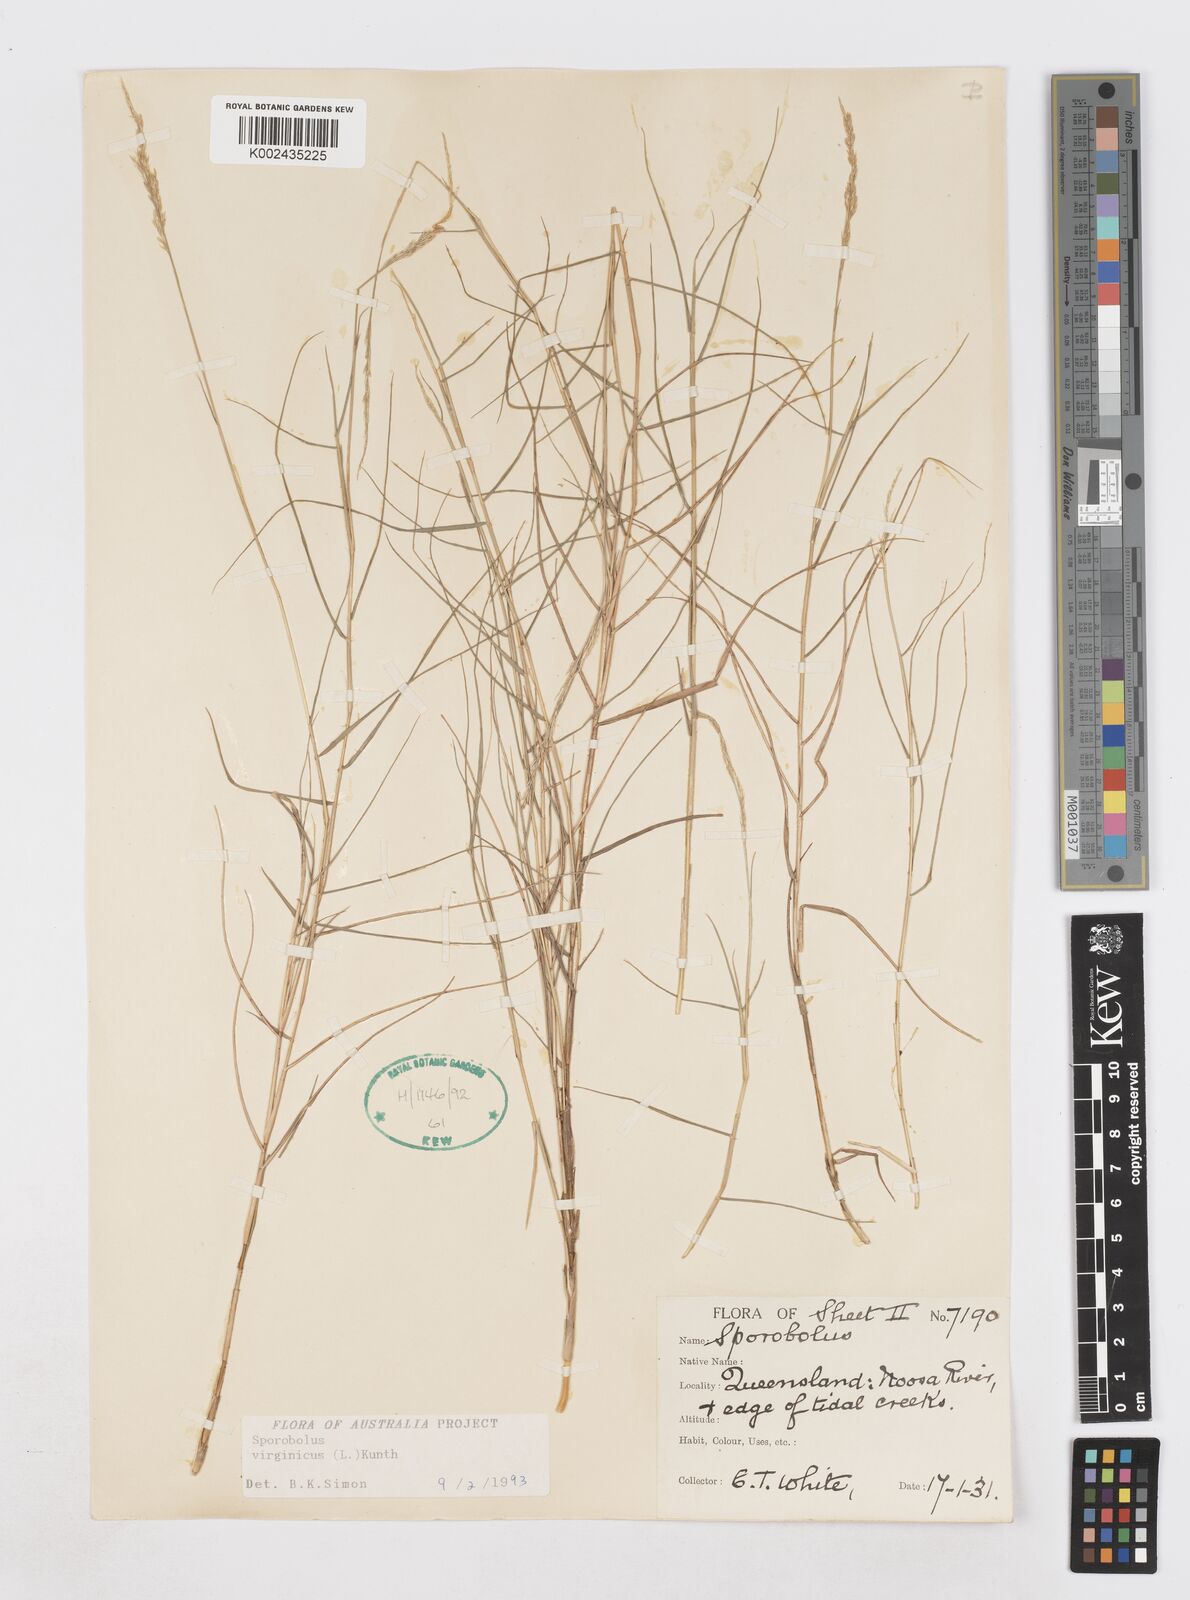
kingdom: Plantae
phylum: Tracheophyta
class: Liliopsida
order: Poales
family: Poaceae
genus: Sporobolus
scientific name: Sporobolus virginicus
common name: Beach dropseed
